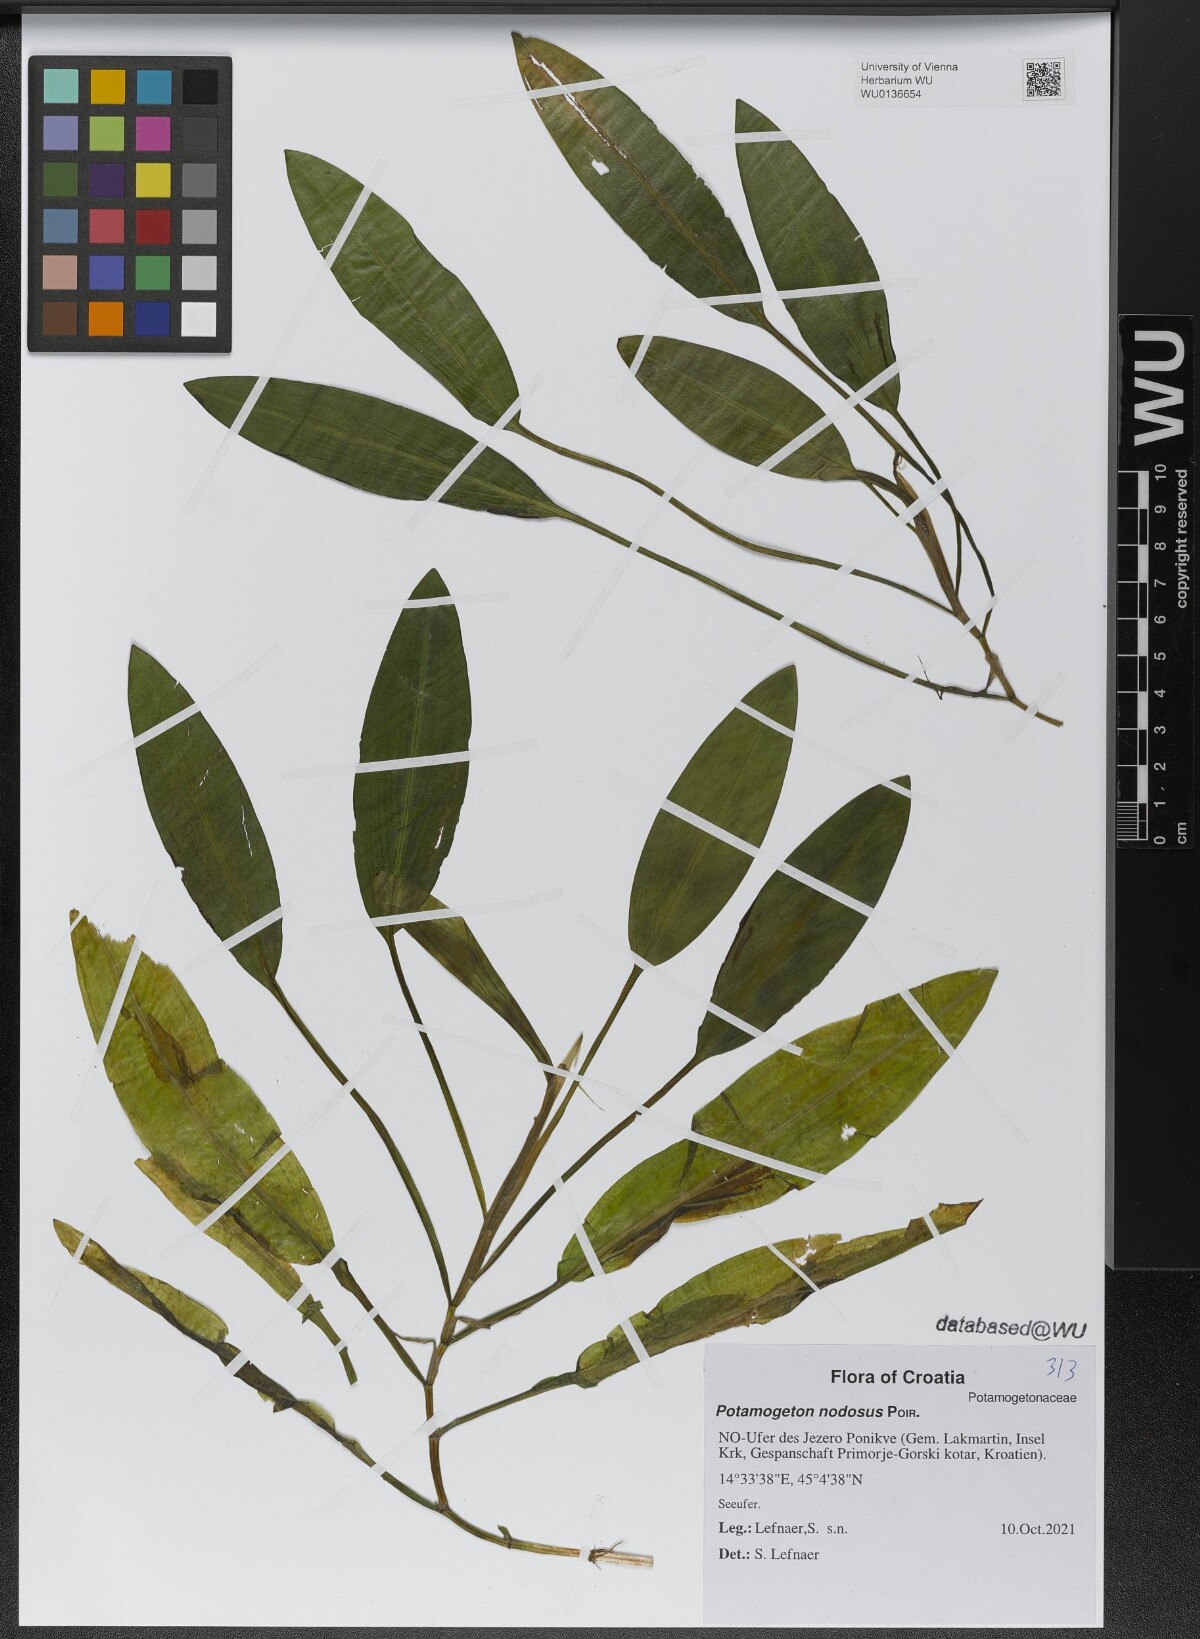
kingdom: Plantae
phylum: Tracheophyta
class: Liliopsida
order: Alismatales
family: Potamogetonaceae
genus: Potamogeton
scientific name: Potamogeton nodosus
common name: Loddon pondweed
